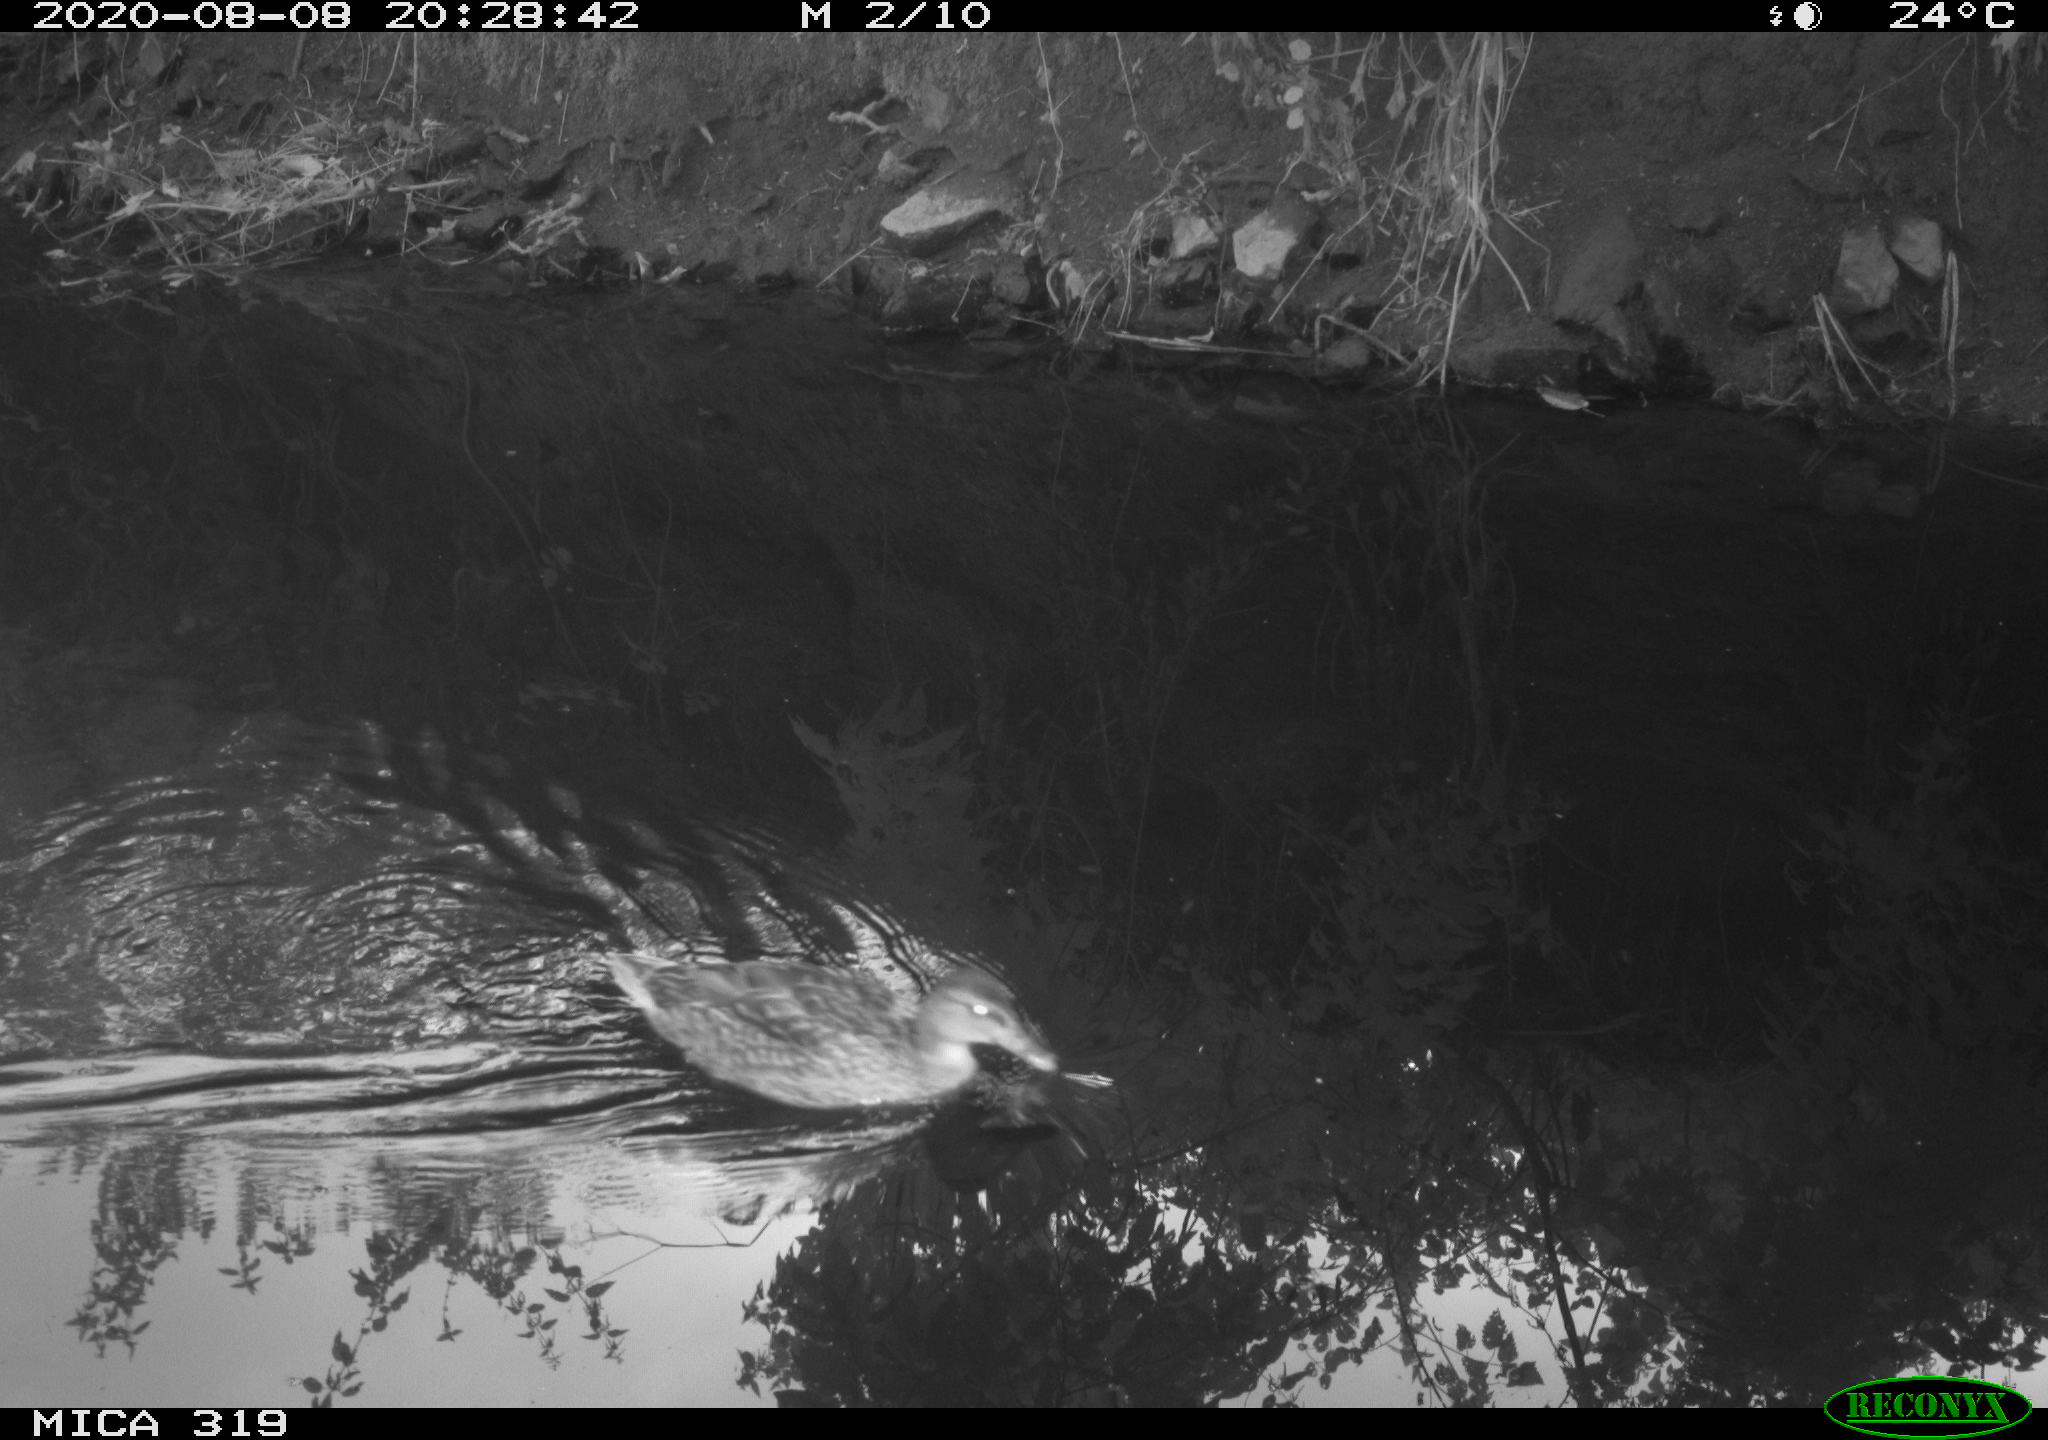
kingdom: Animalia
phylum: Chordata
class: Aves
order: Anseriformes
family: Anatidae
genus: Anas
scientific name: Anas platyrhynchos
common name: Mallard
